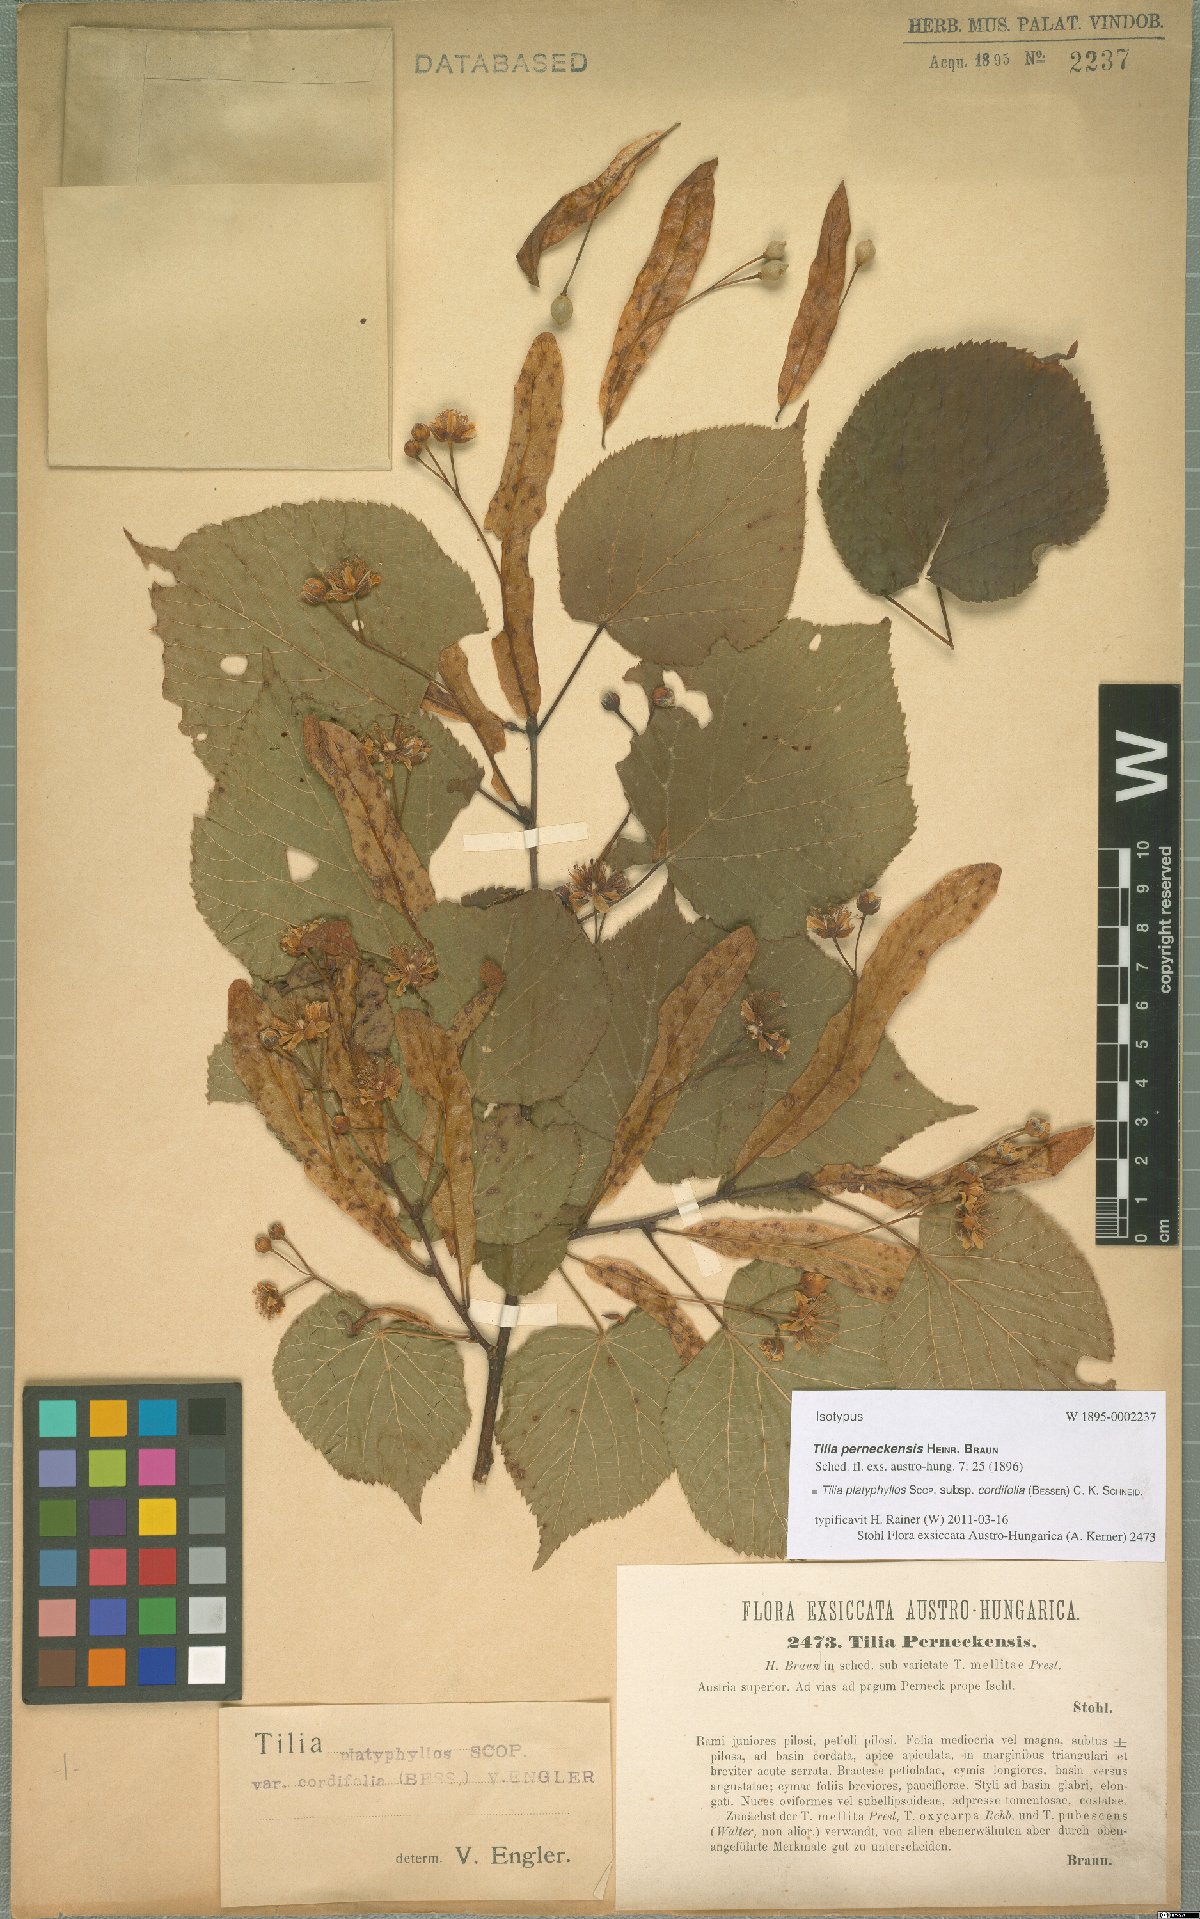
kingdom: Plantae
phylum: Tracheophyta
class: Magnoliopsida
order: Malvales
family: Malvaceae
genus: Tilia
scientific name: Tilia platyphyllos
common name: Large-leaved lime
